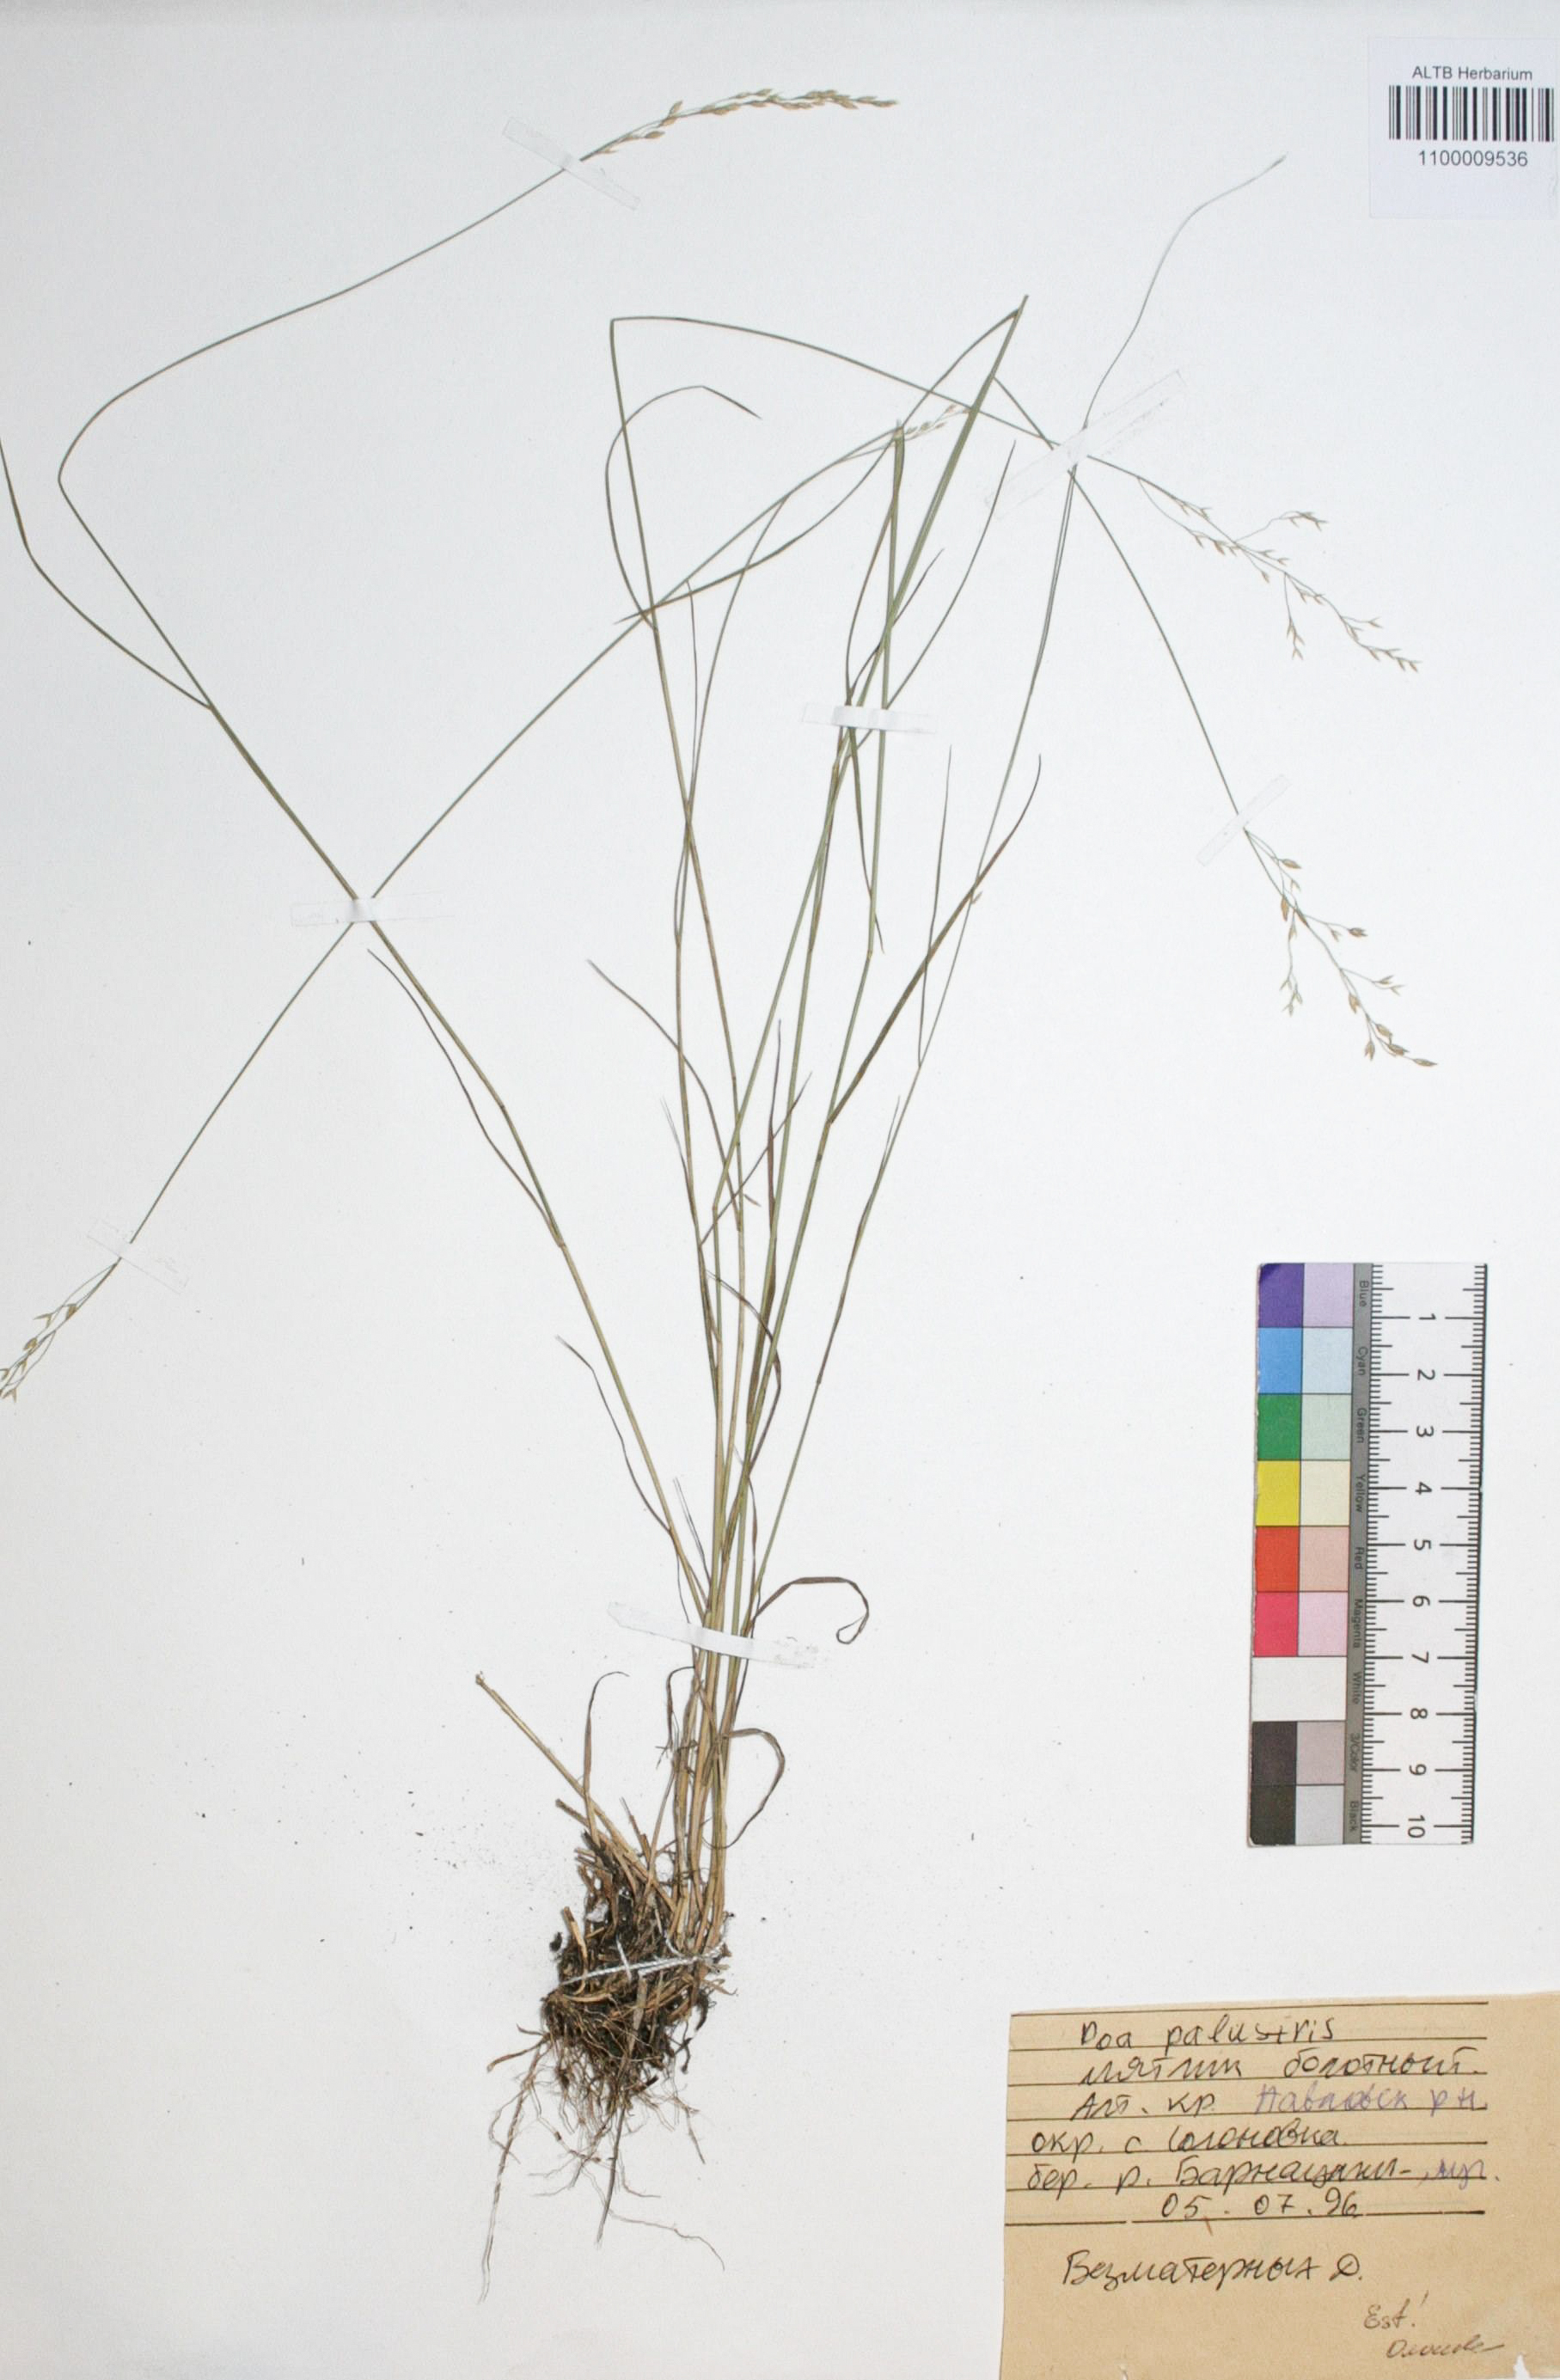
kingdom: Plantae
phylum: Tracheophyta
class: Liliopsida
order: Poales
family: Poaceae
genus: Poa
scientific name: Poa palustris
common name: Swamp meadow-grass
